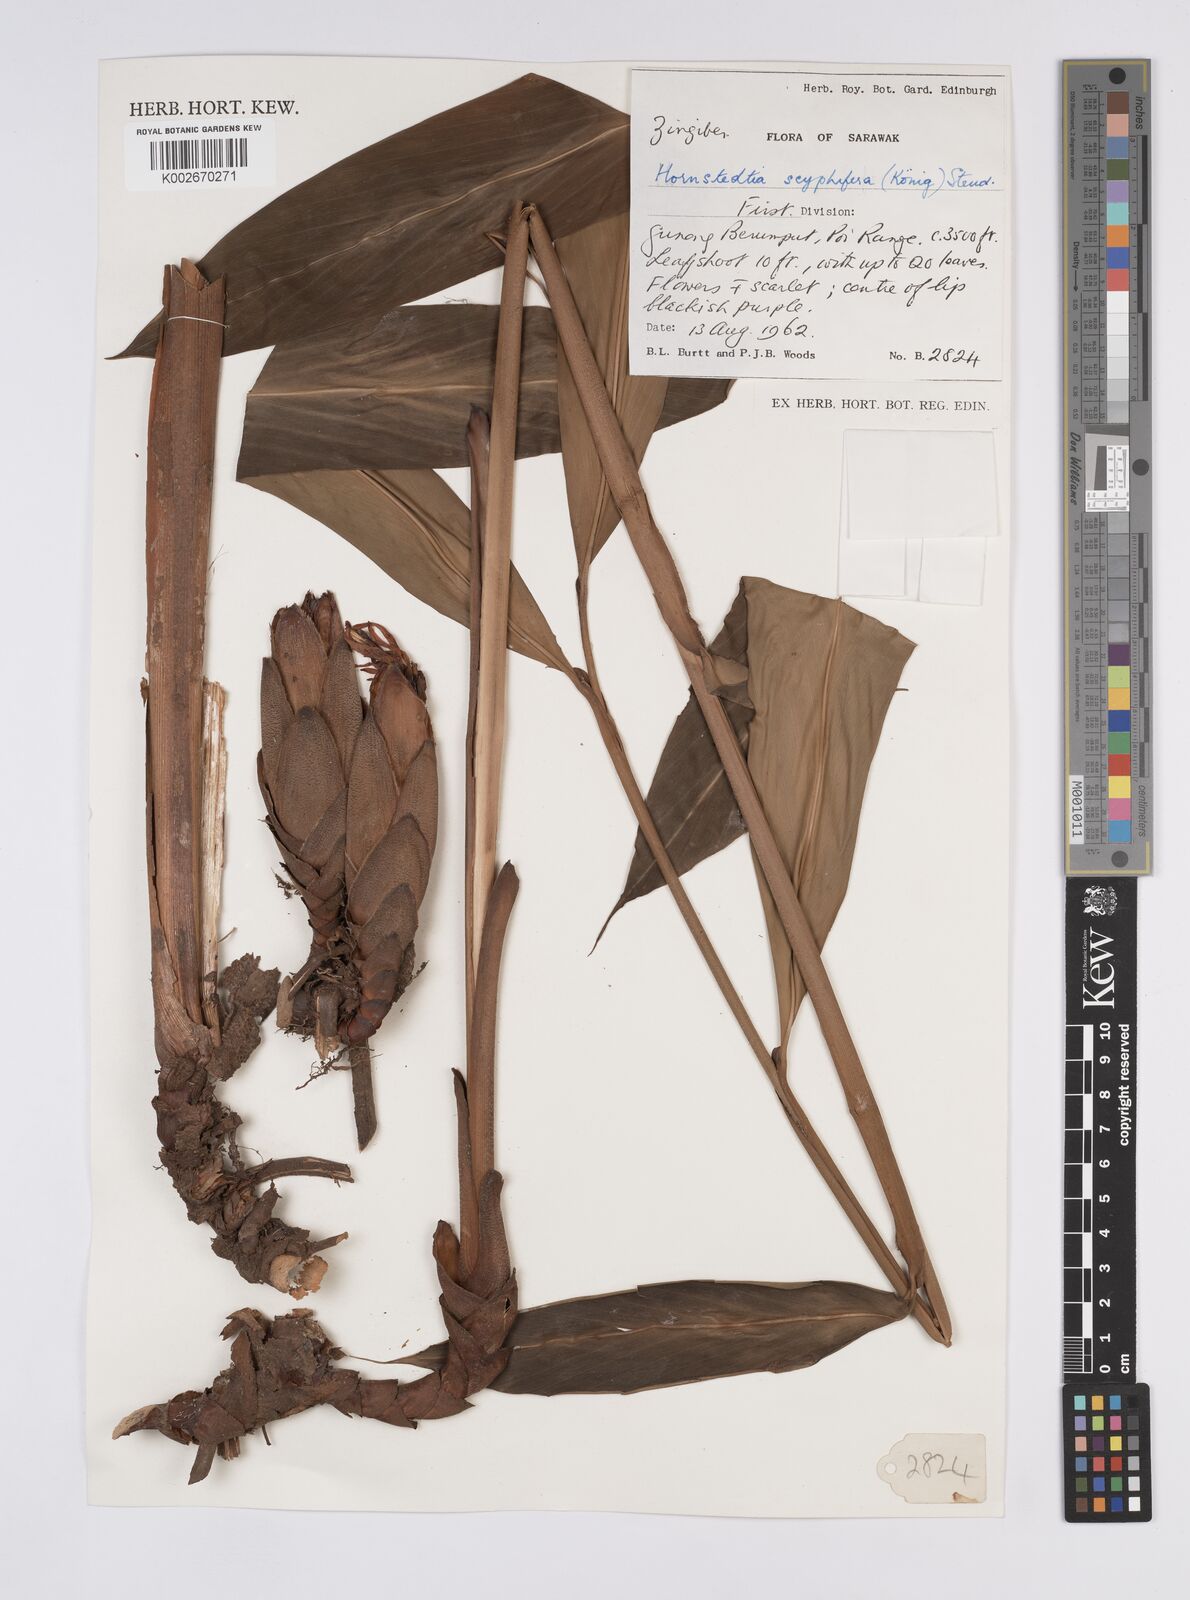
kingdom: Plantae
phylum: Tracheophyta
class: Liliopsida
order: Zingiberales
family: Zingiberaceae
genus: Hornstedtia
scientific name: Hornstedtia scyphifera
